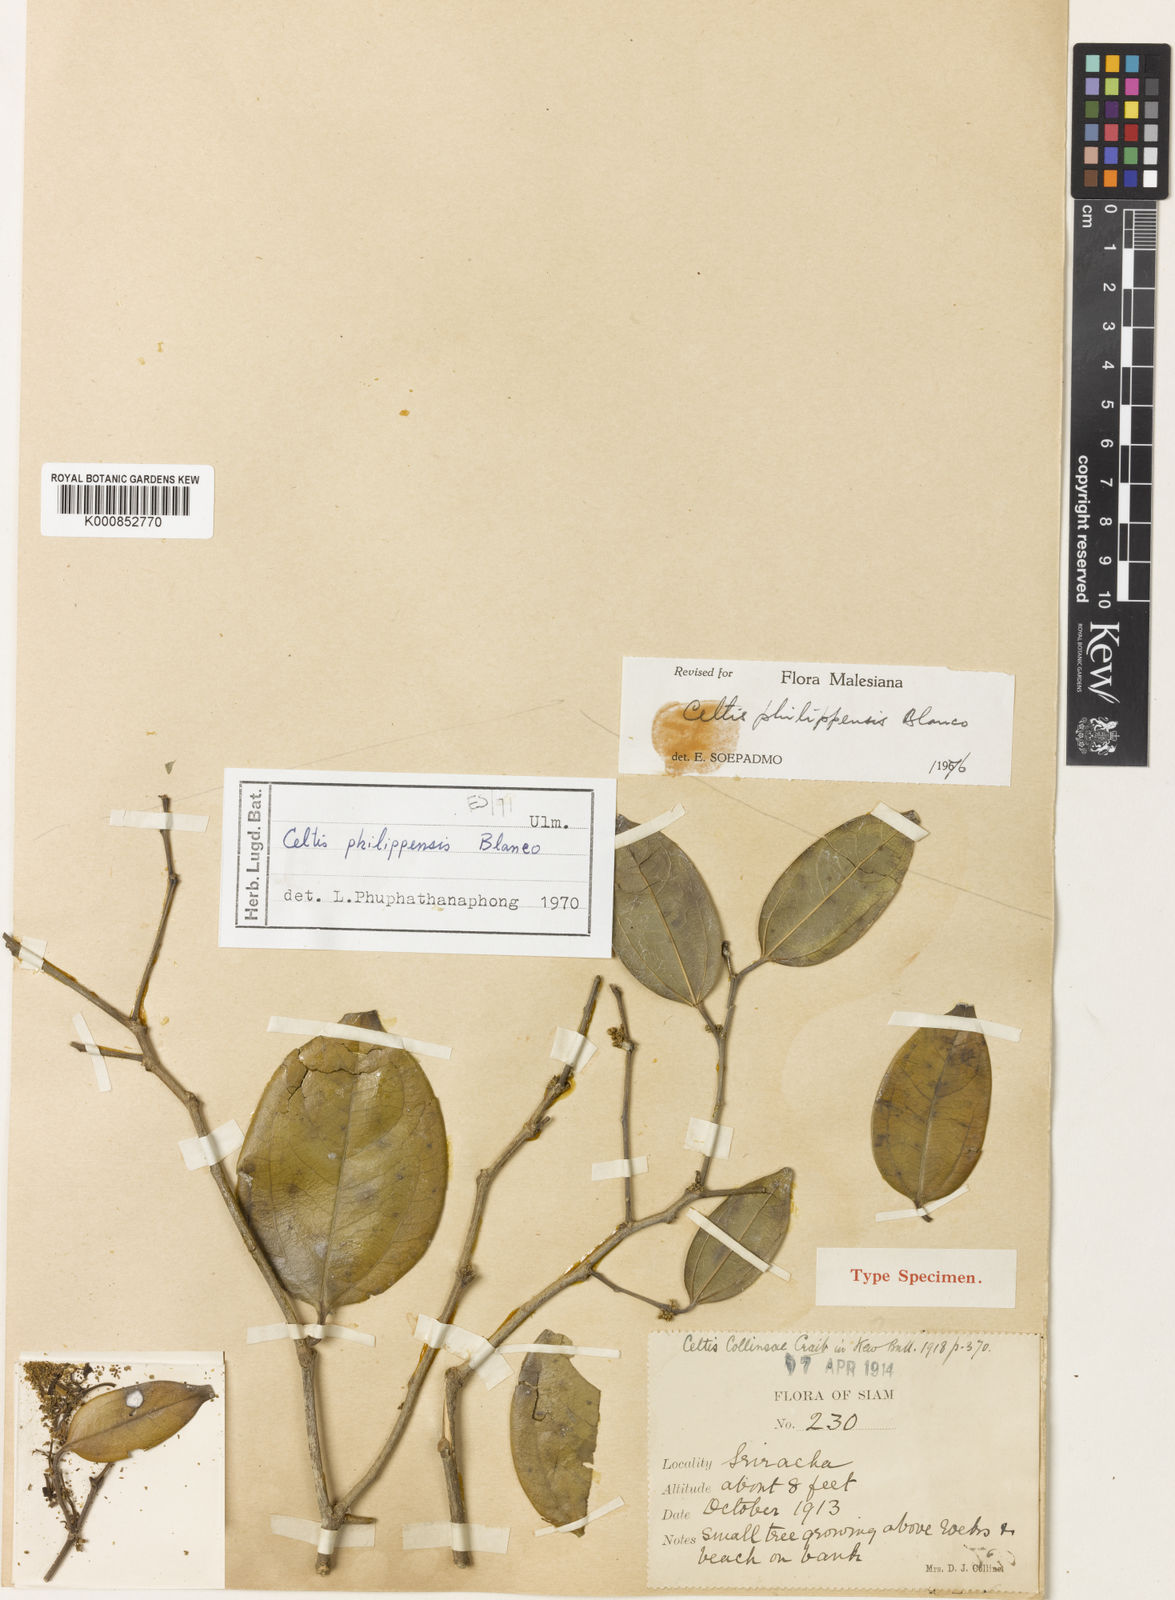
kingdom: Plantae
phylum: Tracheophyta
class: Magnoliopsida
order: Rosales
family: Cannabaceae
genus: Celtis
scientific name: Celtis philippensis
